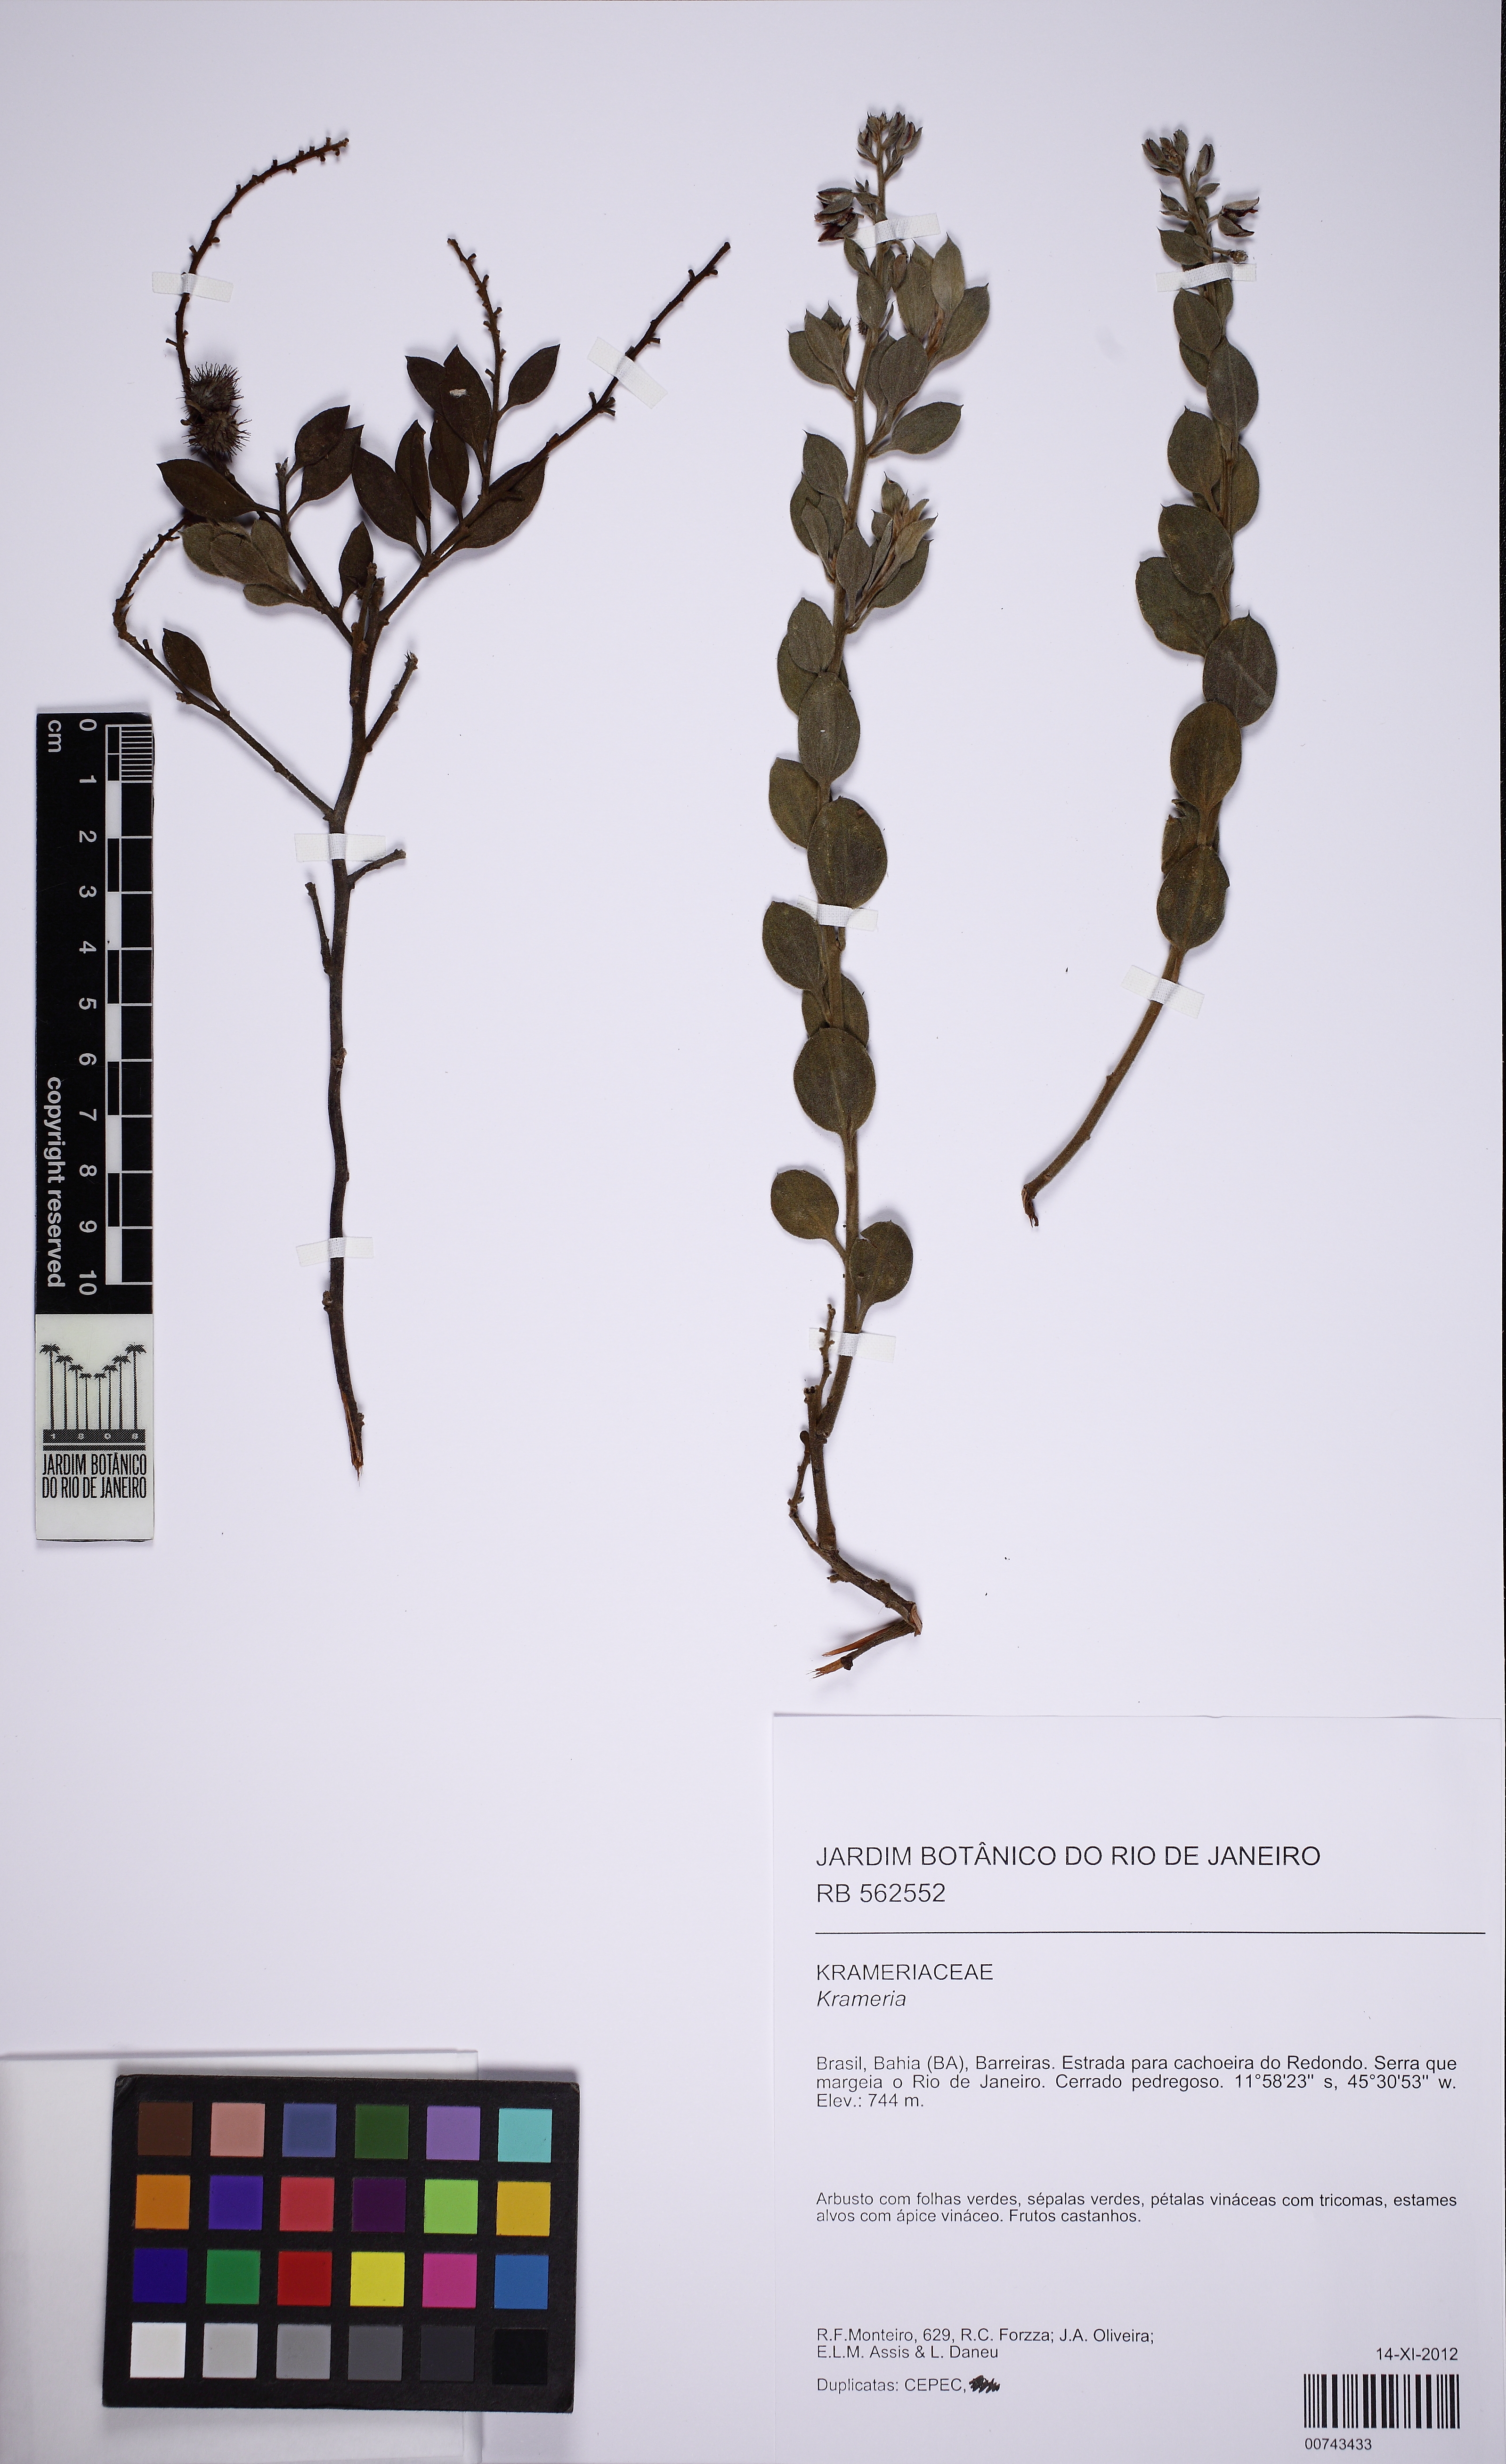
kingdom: Plantae
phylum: Tracheophyta
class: Magnoliopsida
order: Zygophyllales
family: Krameriaceae
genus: Krameria
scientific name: Krameria
